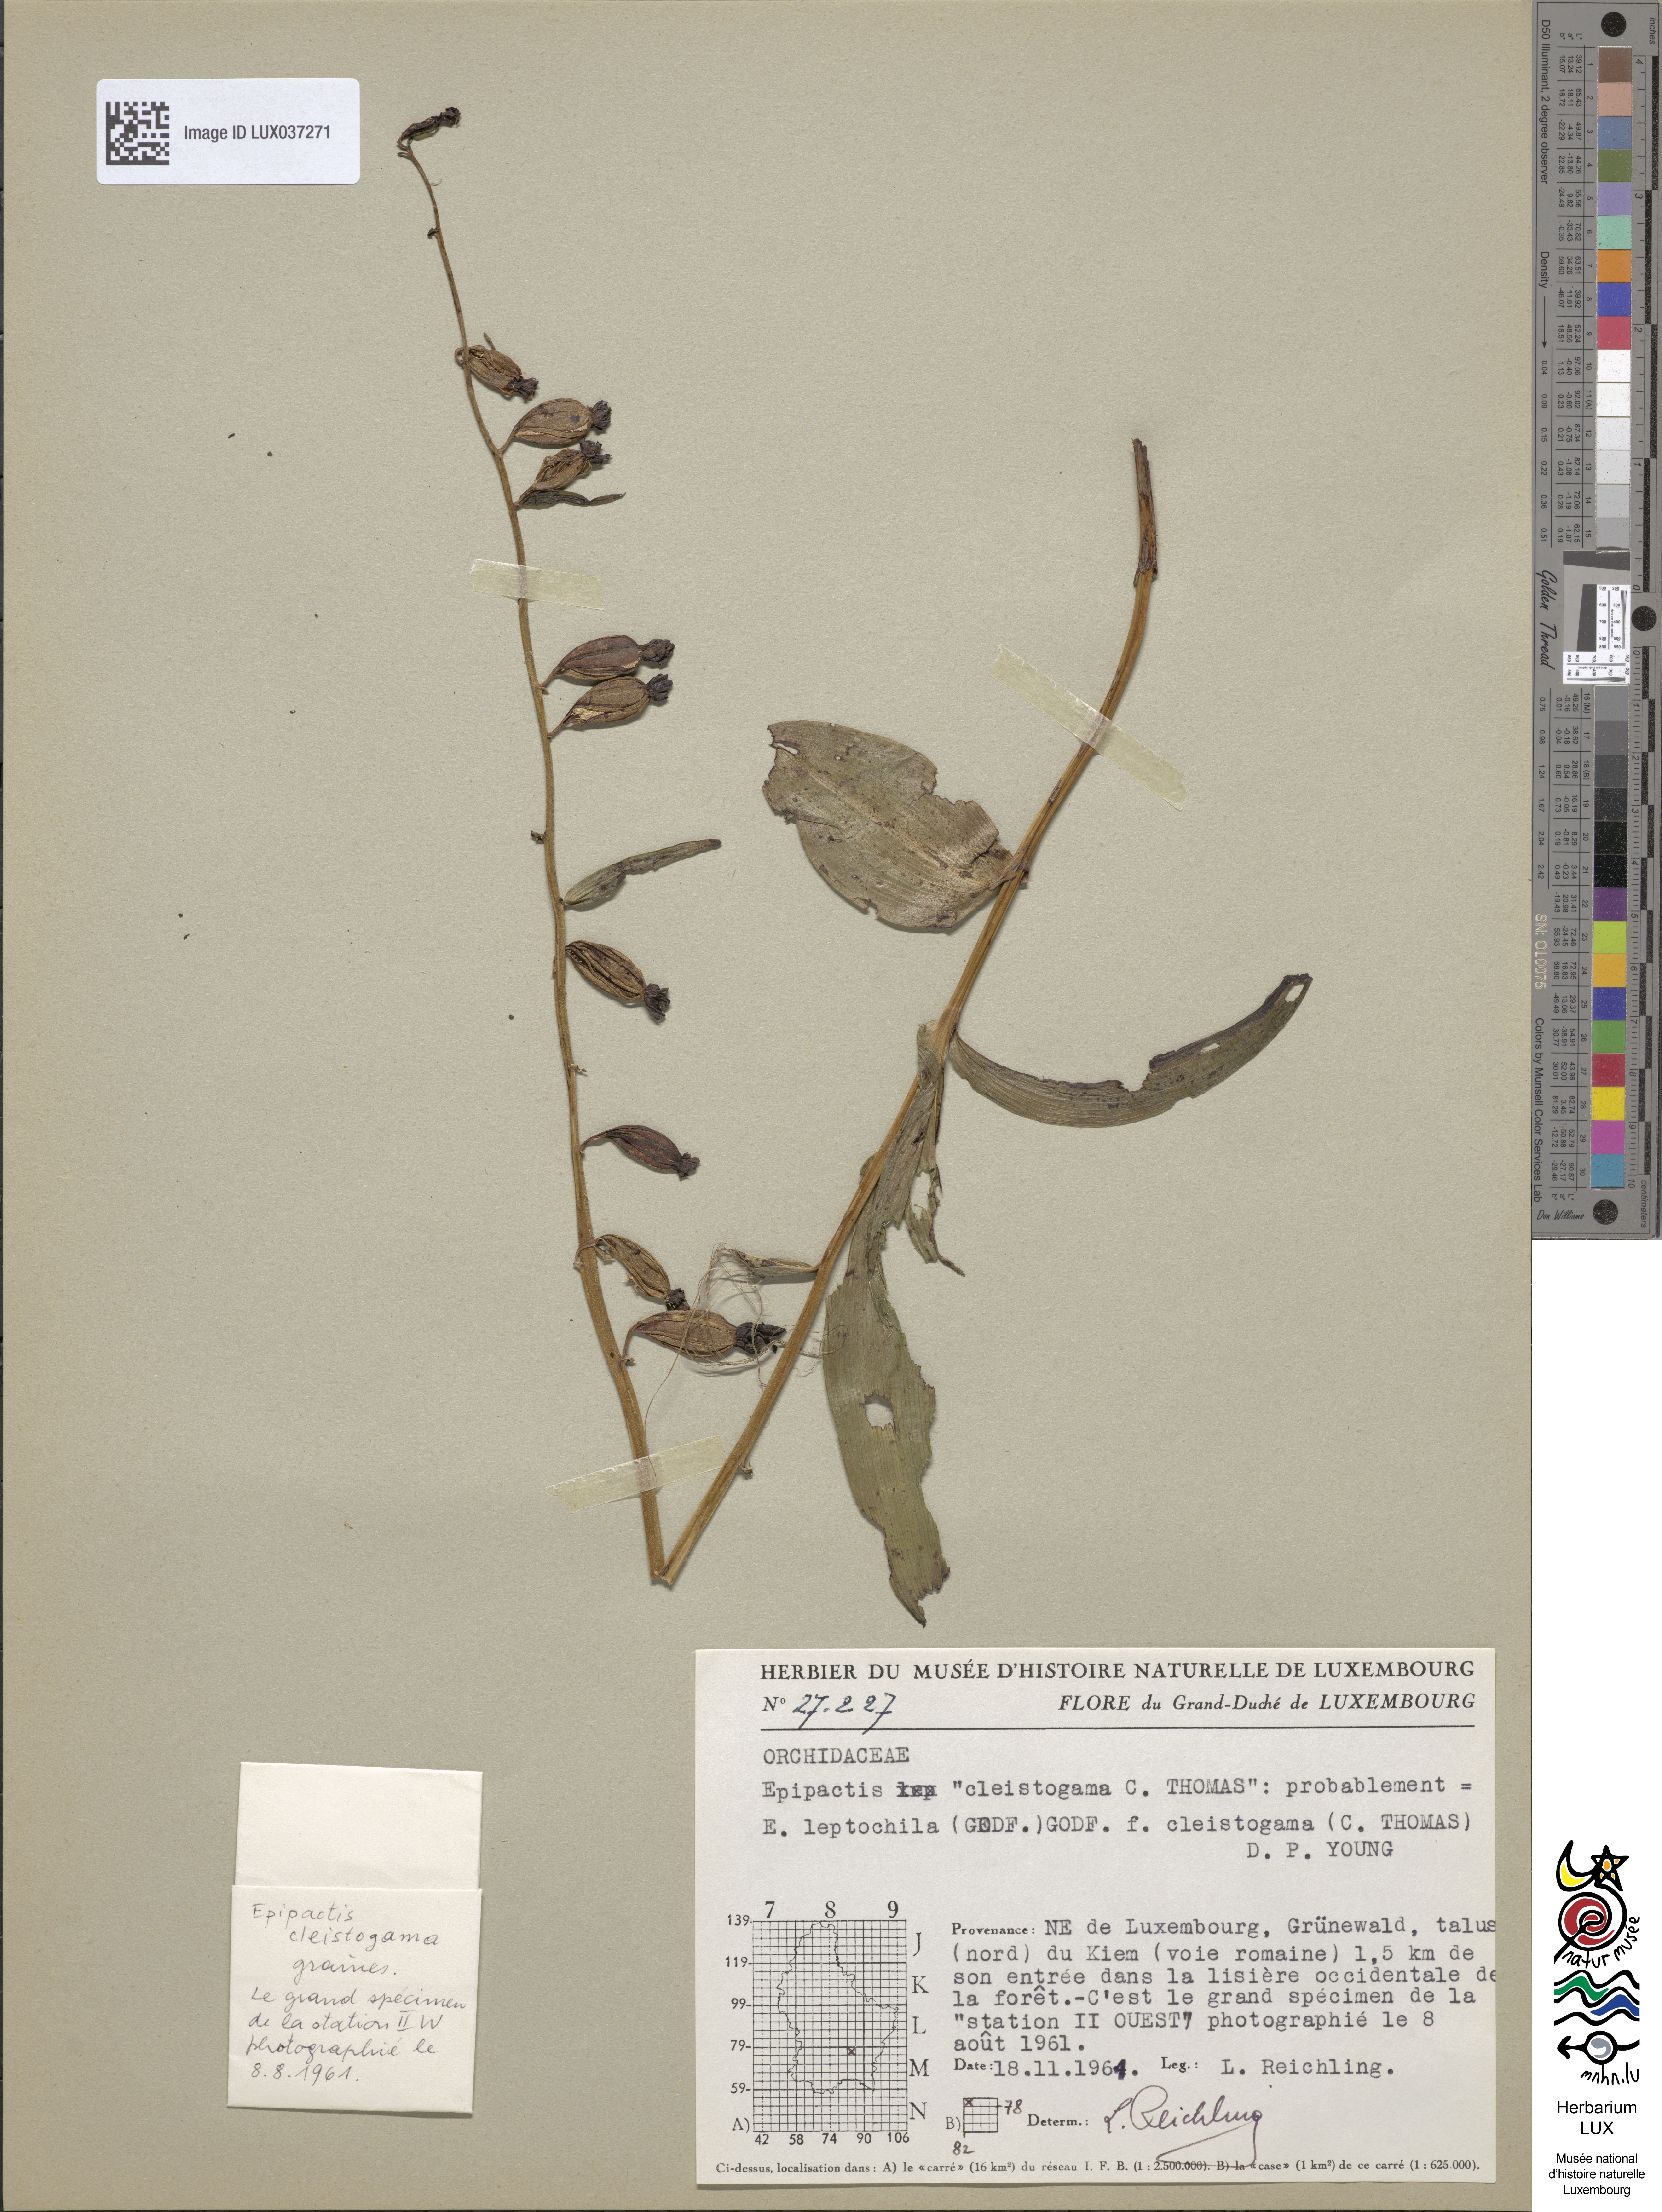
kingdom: Plantae
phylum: Tracheophyta
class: Liliopsida
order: Asparagales
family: Orchidaceae
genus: Epipactis
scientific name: Epipactis leptochila
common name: Narrow-lipped helleborine
